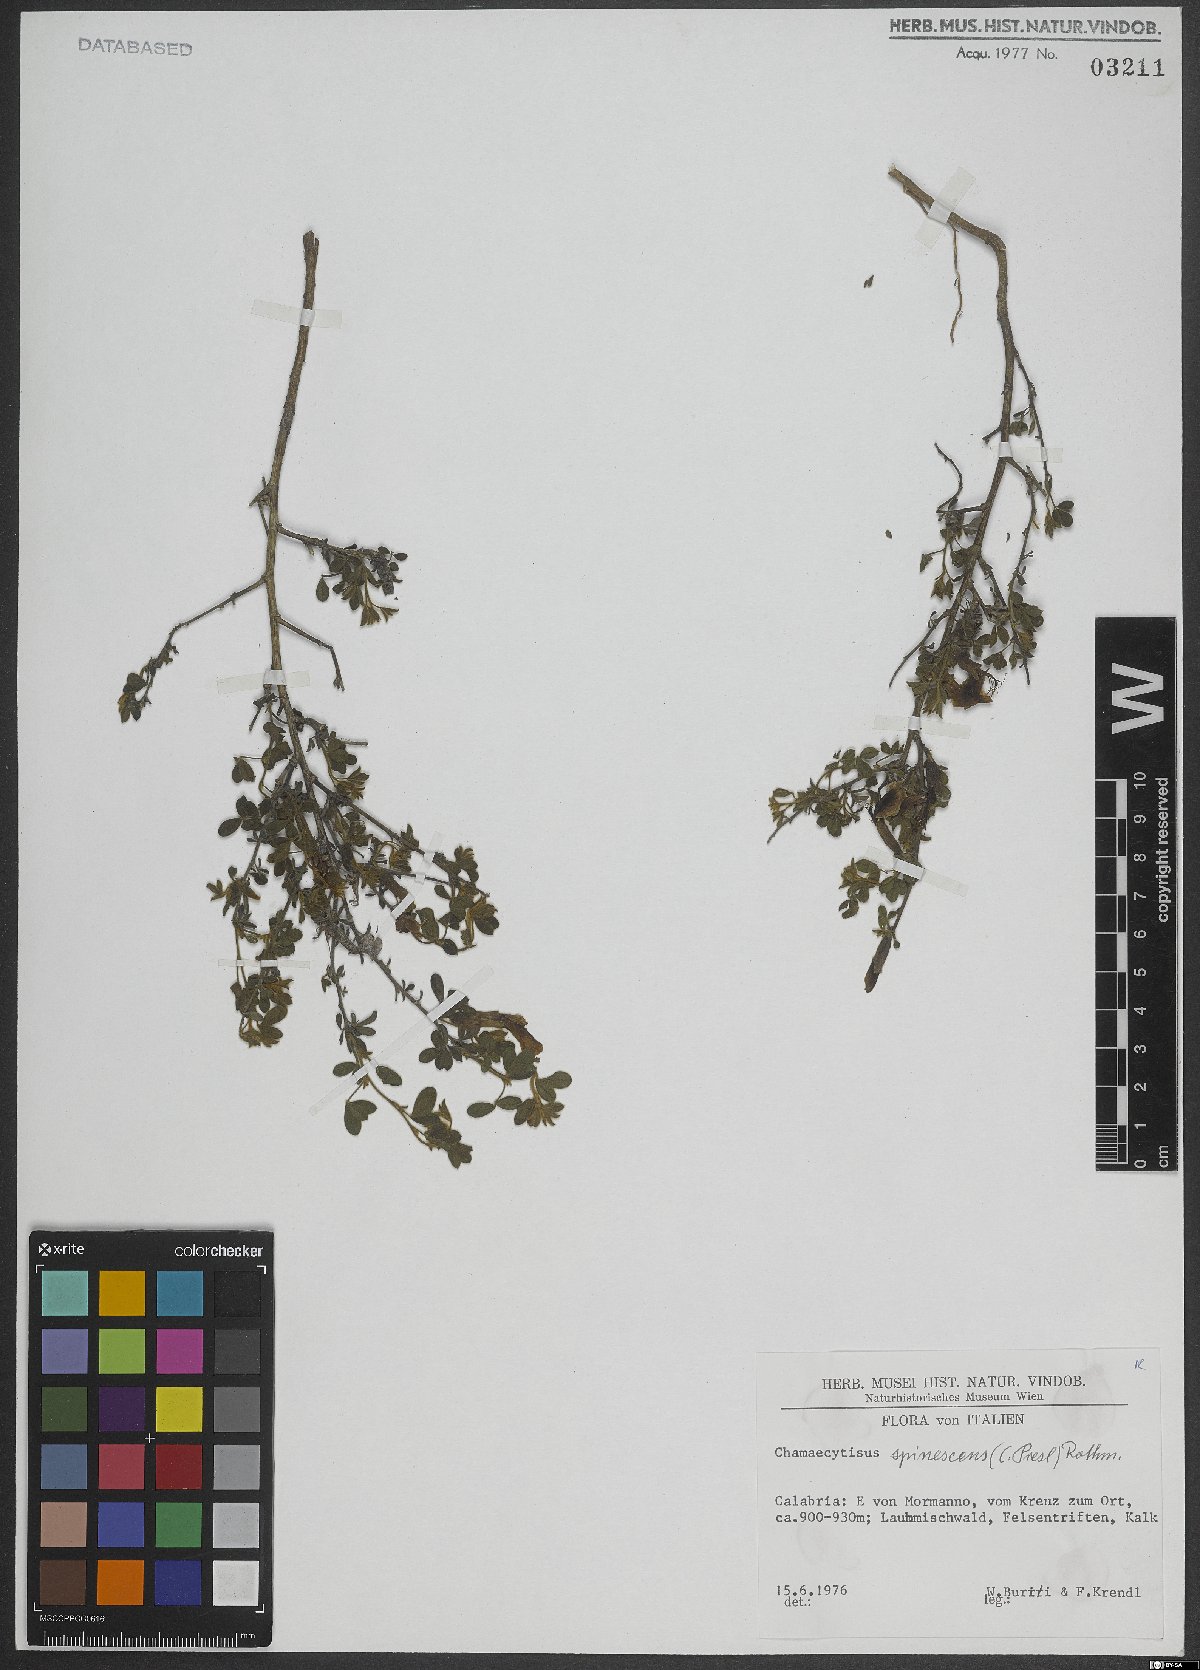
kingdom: Plantae
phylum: Tracheophyta
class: Magnoliopsida
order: Fabales
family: Fabaceae
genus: Chamaecytisus
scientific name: Chamaecytisus spinescens
